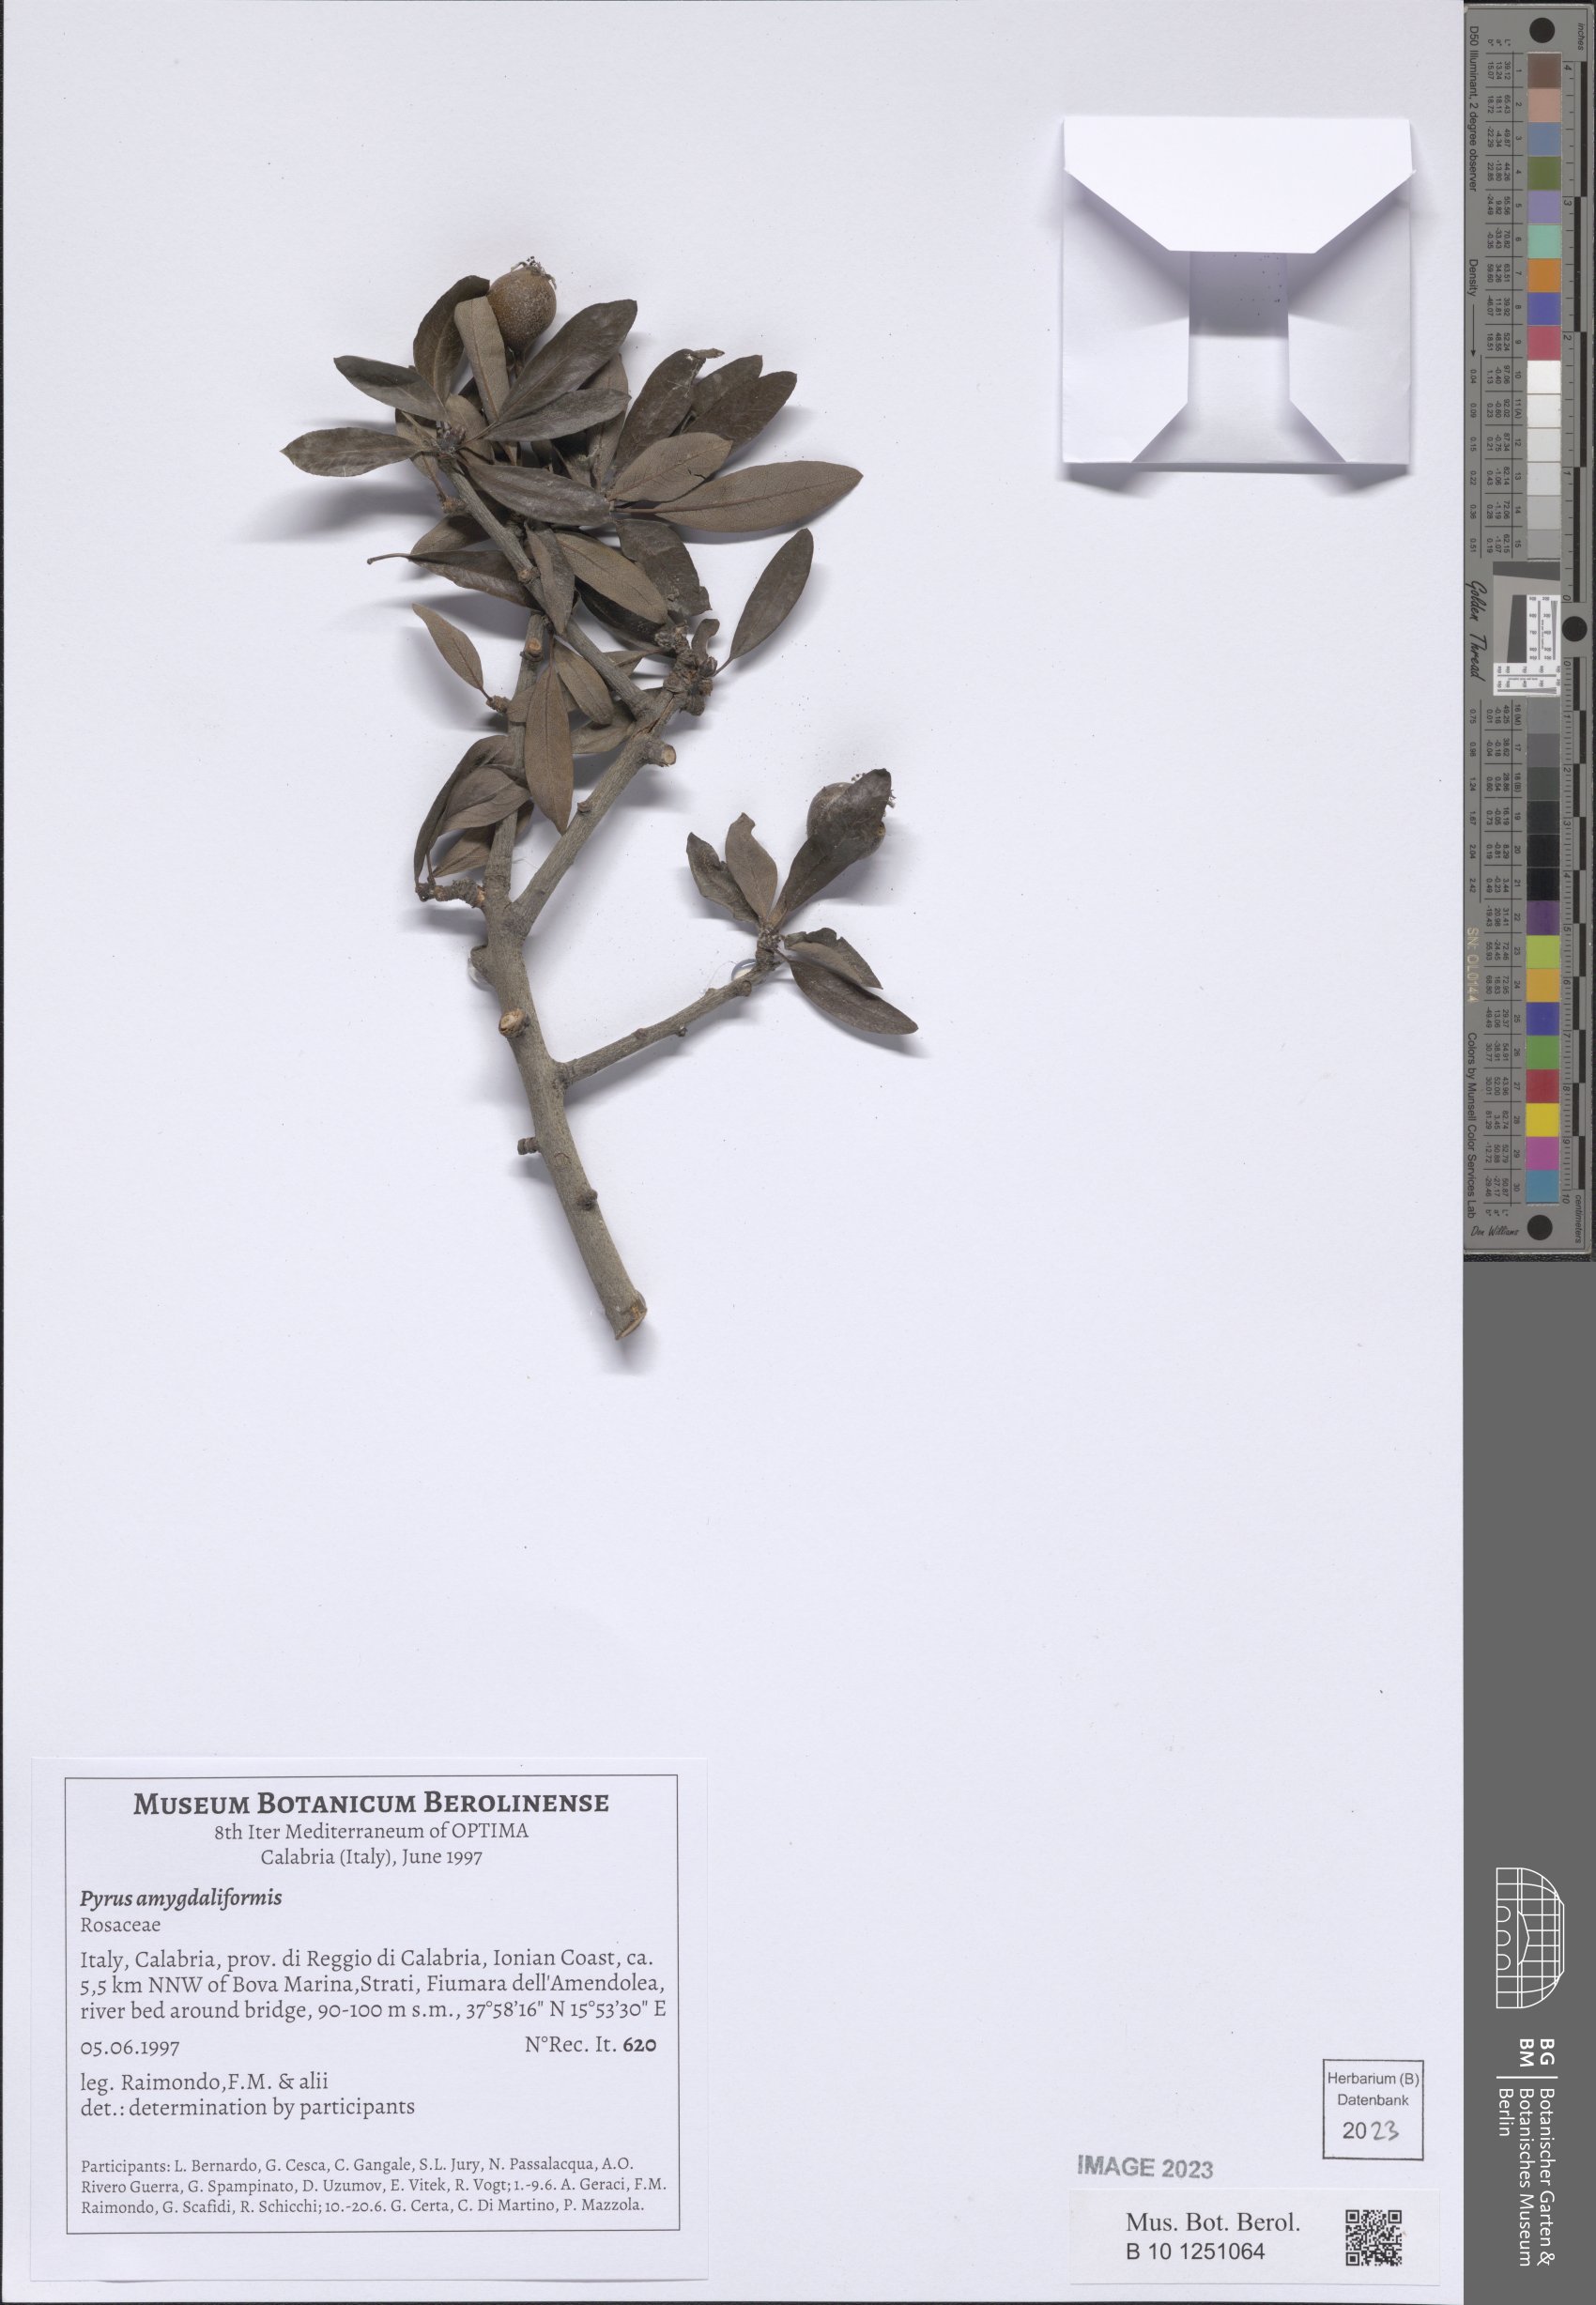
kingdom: Plantae
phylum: Tracheophyta
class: Magnoliopsida
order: Rosales
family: Rosaceae
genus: Pyrus
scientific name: Pyrus spinosa
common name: Almond-leaf pear
